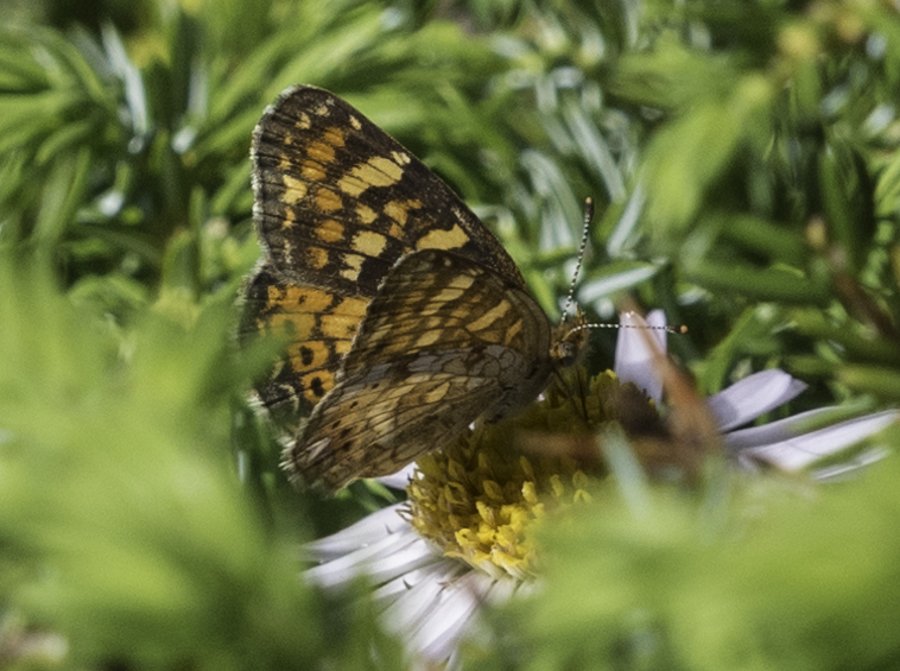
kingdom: Animalia
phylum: Arthropoda
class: Insecta
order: Lepidoptera
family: Nymphalidae
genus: Phyciodes
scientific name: Phyciodes tharos
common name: Field Crescent
